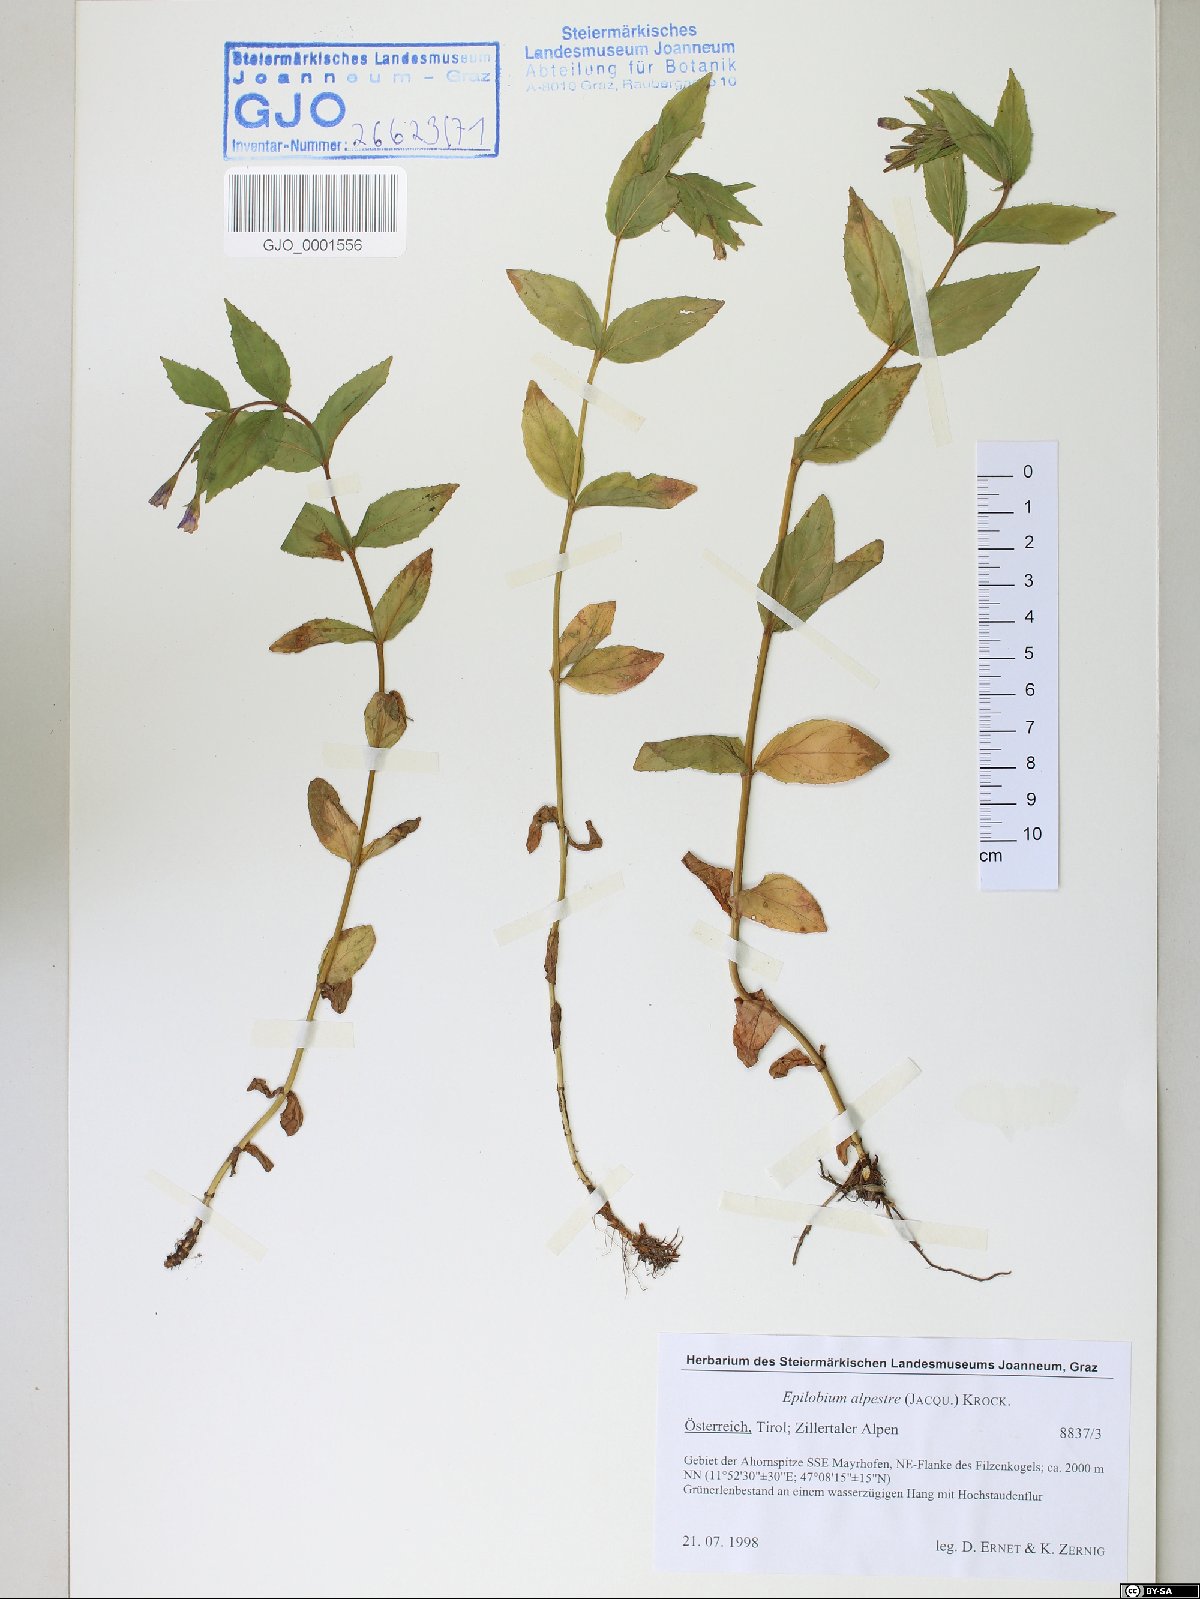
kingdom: Plantae
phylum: Tracheophyta
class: Magnoliopsida
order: Myrtales
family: Onagraceae
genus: Epilobium
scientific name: Epilobium alpestre
